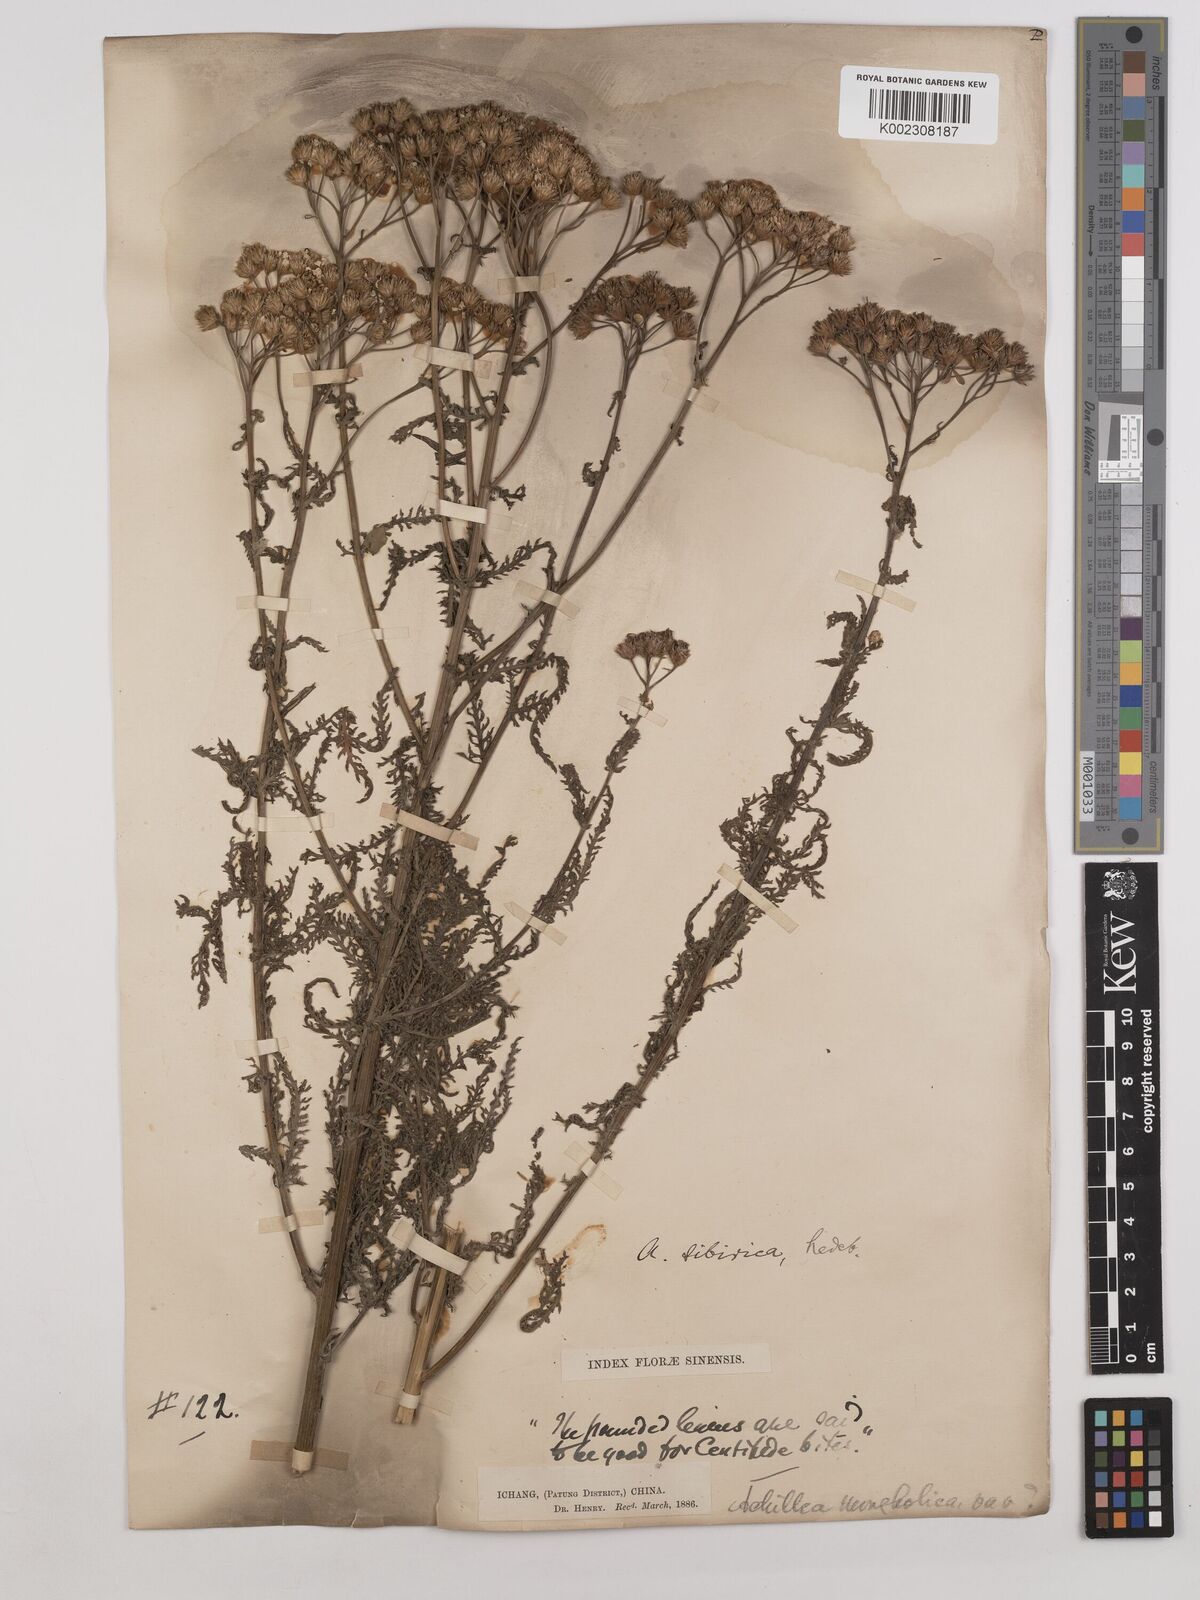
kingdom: Plantae
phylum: Tracheophyta
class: Magnoliopsida
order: Asterales
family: Asteraceae
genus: Achillea
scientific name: Achillea alpina
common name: Siberian yarrow
